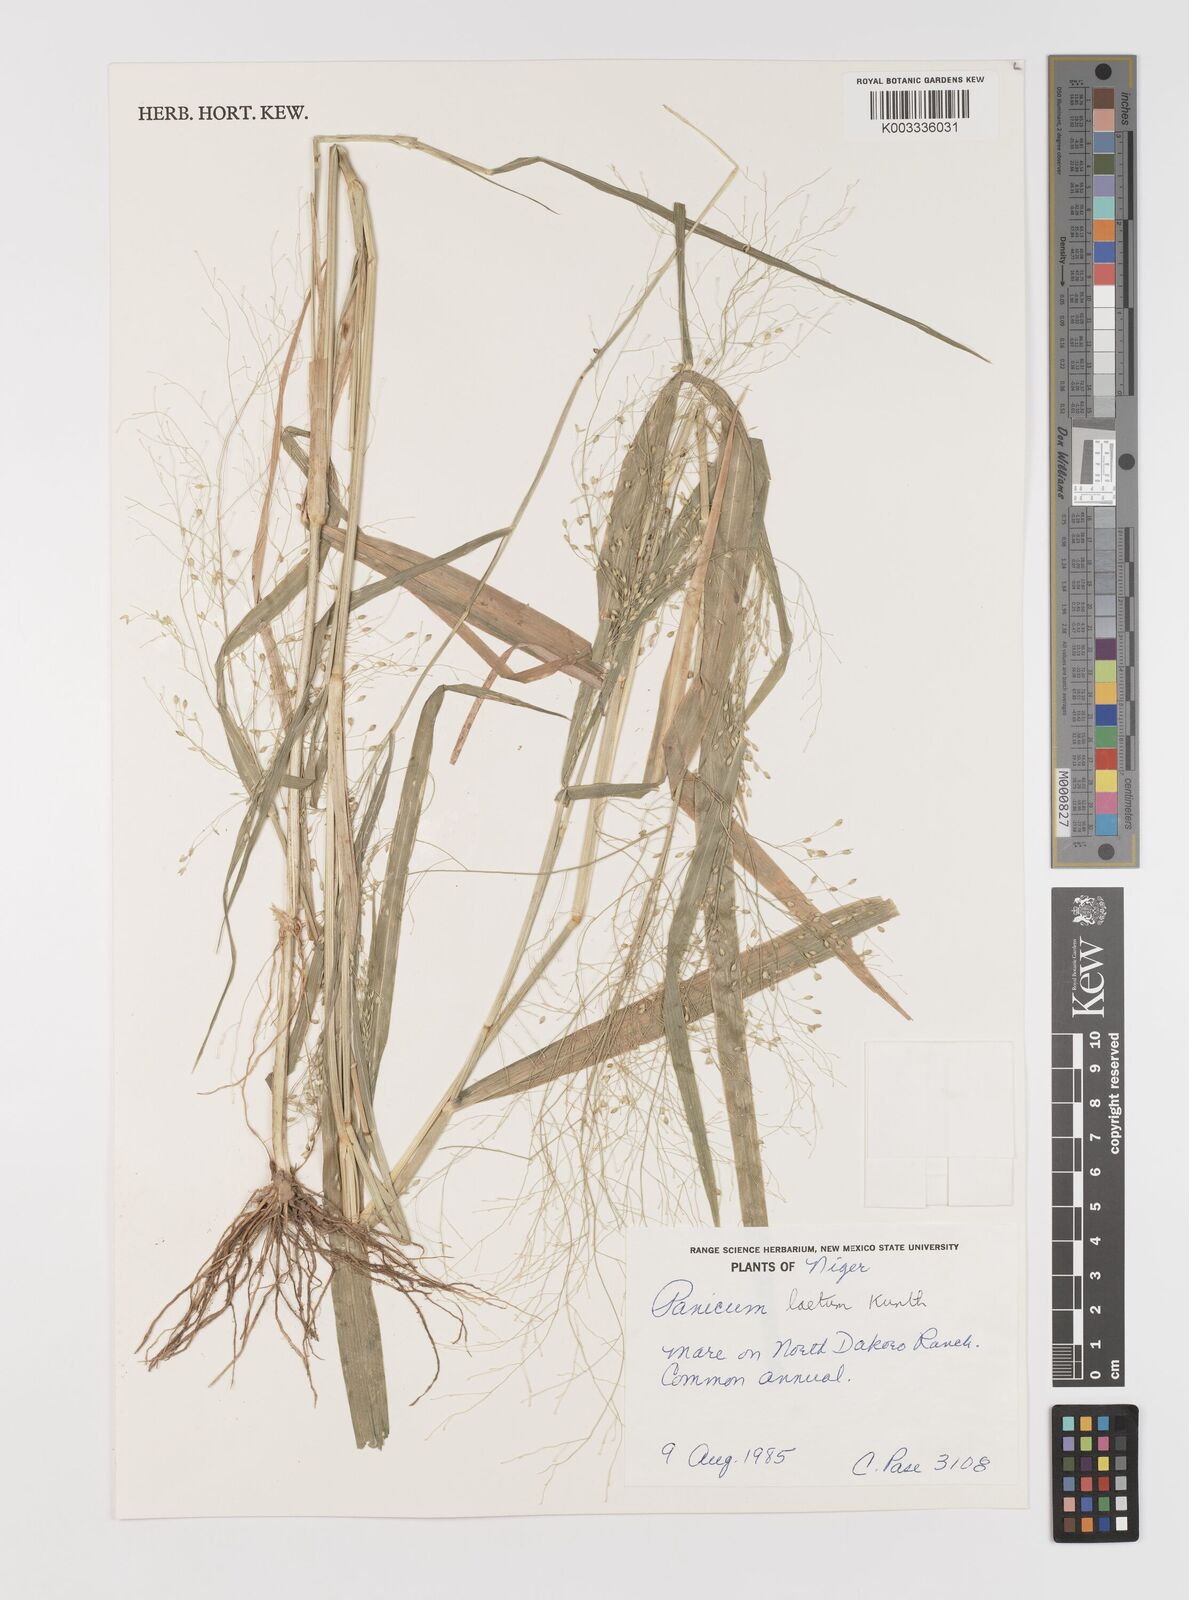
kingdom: Plantae
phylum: Tracheophyta
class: Liliopsida
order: Poales
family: Poaceae
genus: Panicum
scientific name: Panicum laetum
